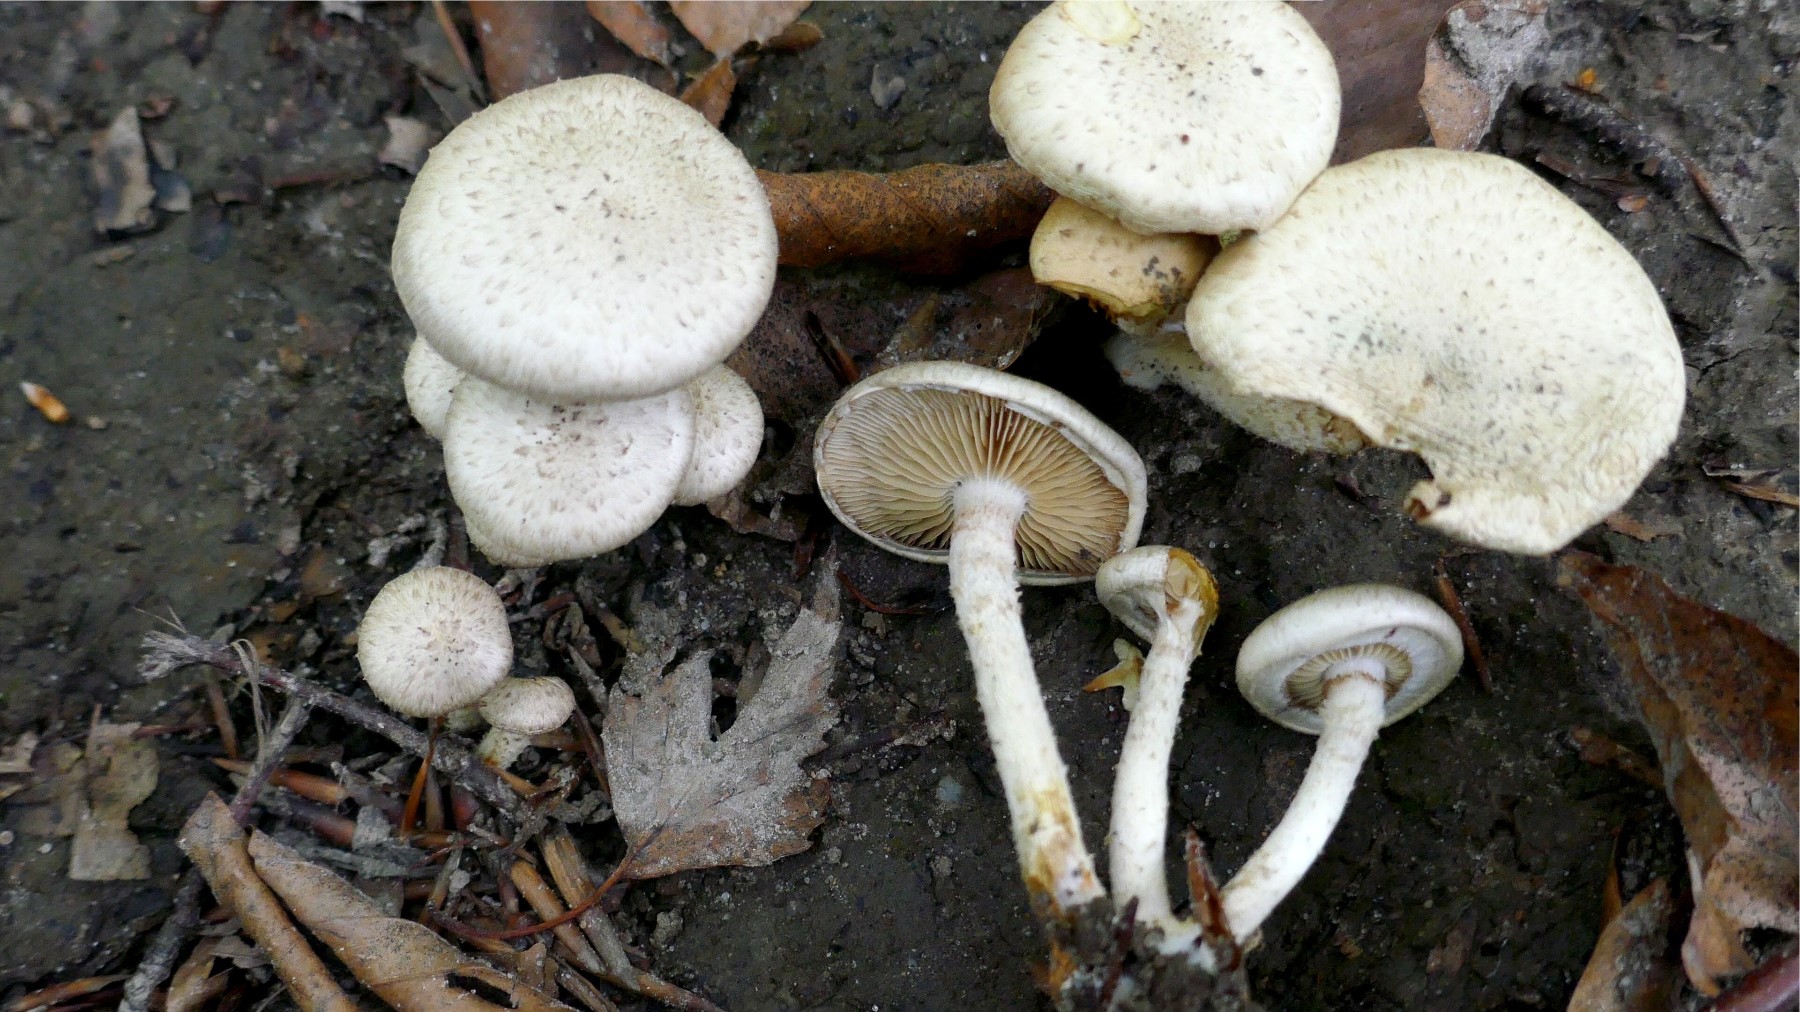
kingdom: Fungi
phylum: Basidiomycota
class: Agaricomycetes
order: Agaricales
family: Strophariaceae
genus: Pholiota
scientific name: Pholiota gummosa
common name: grøngul skælhat
